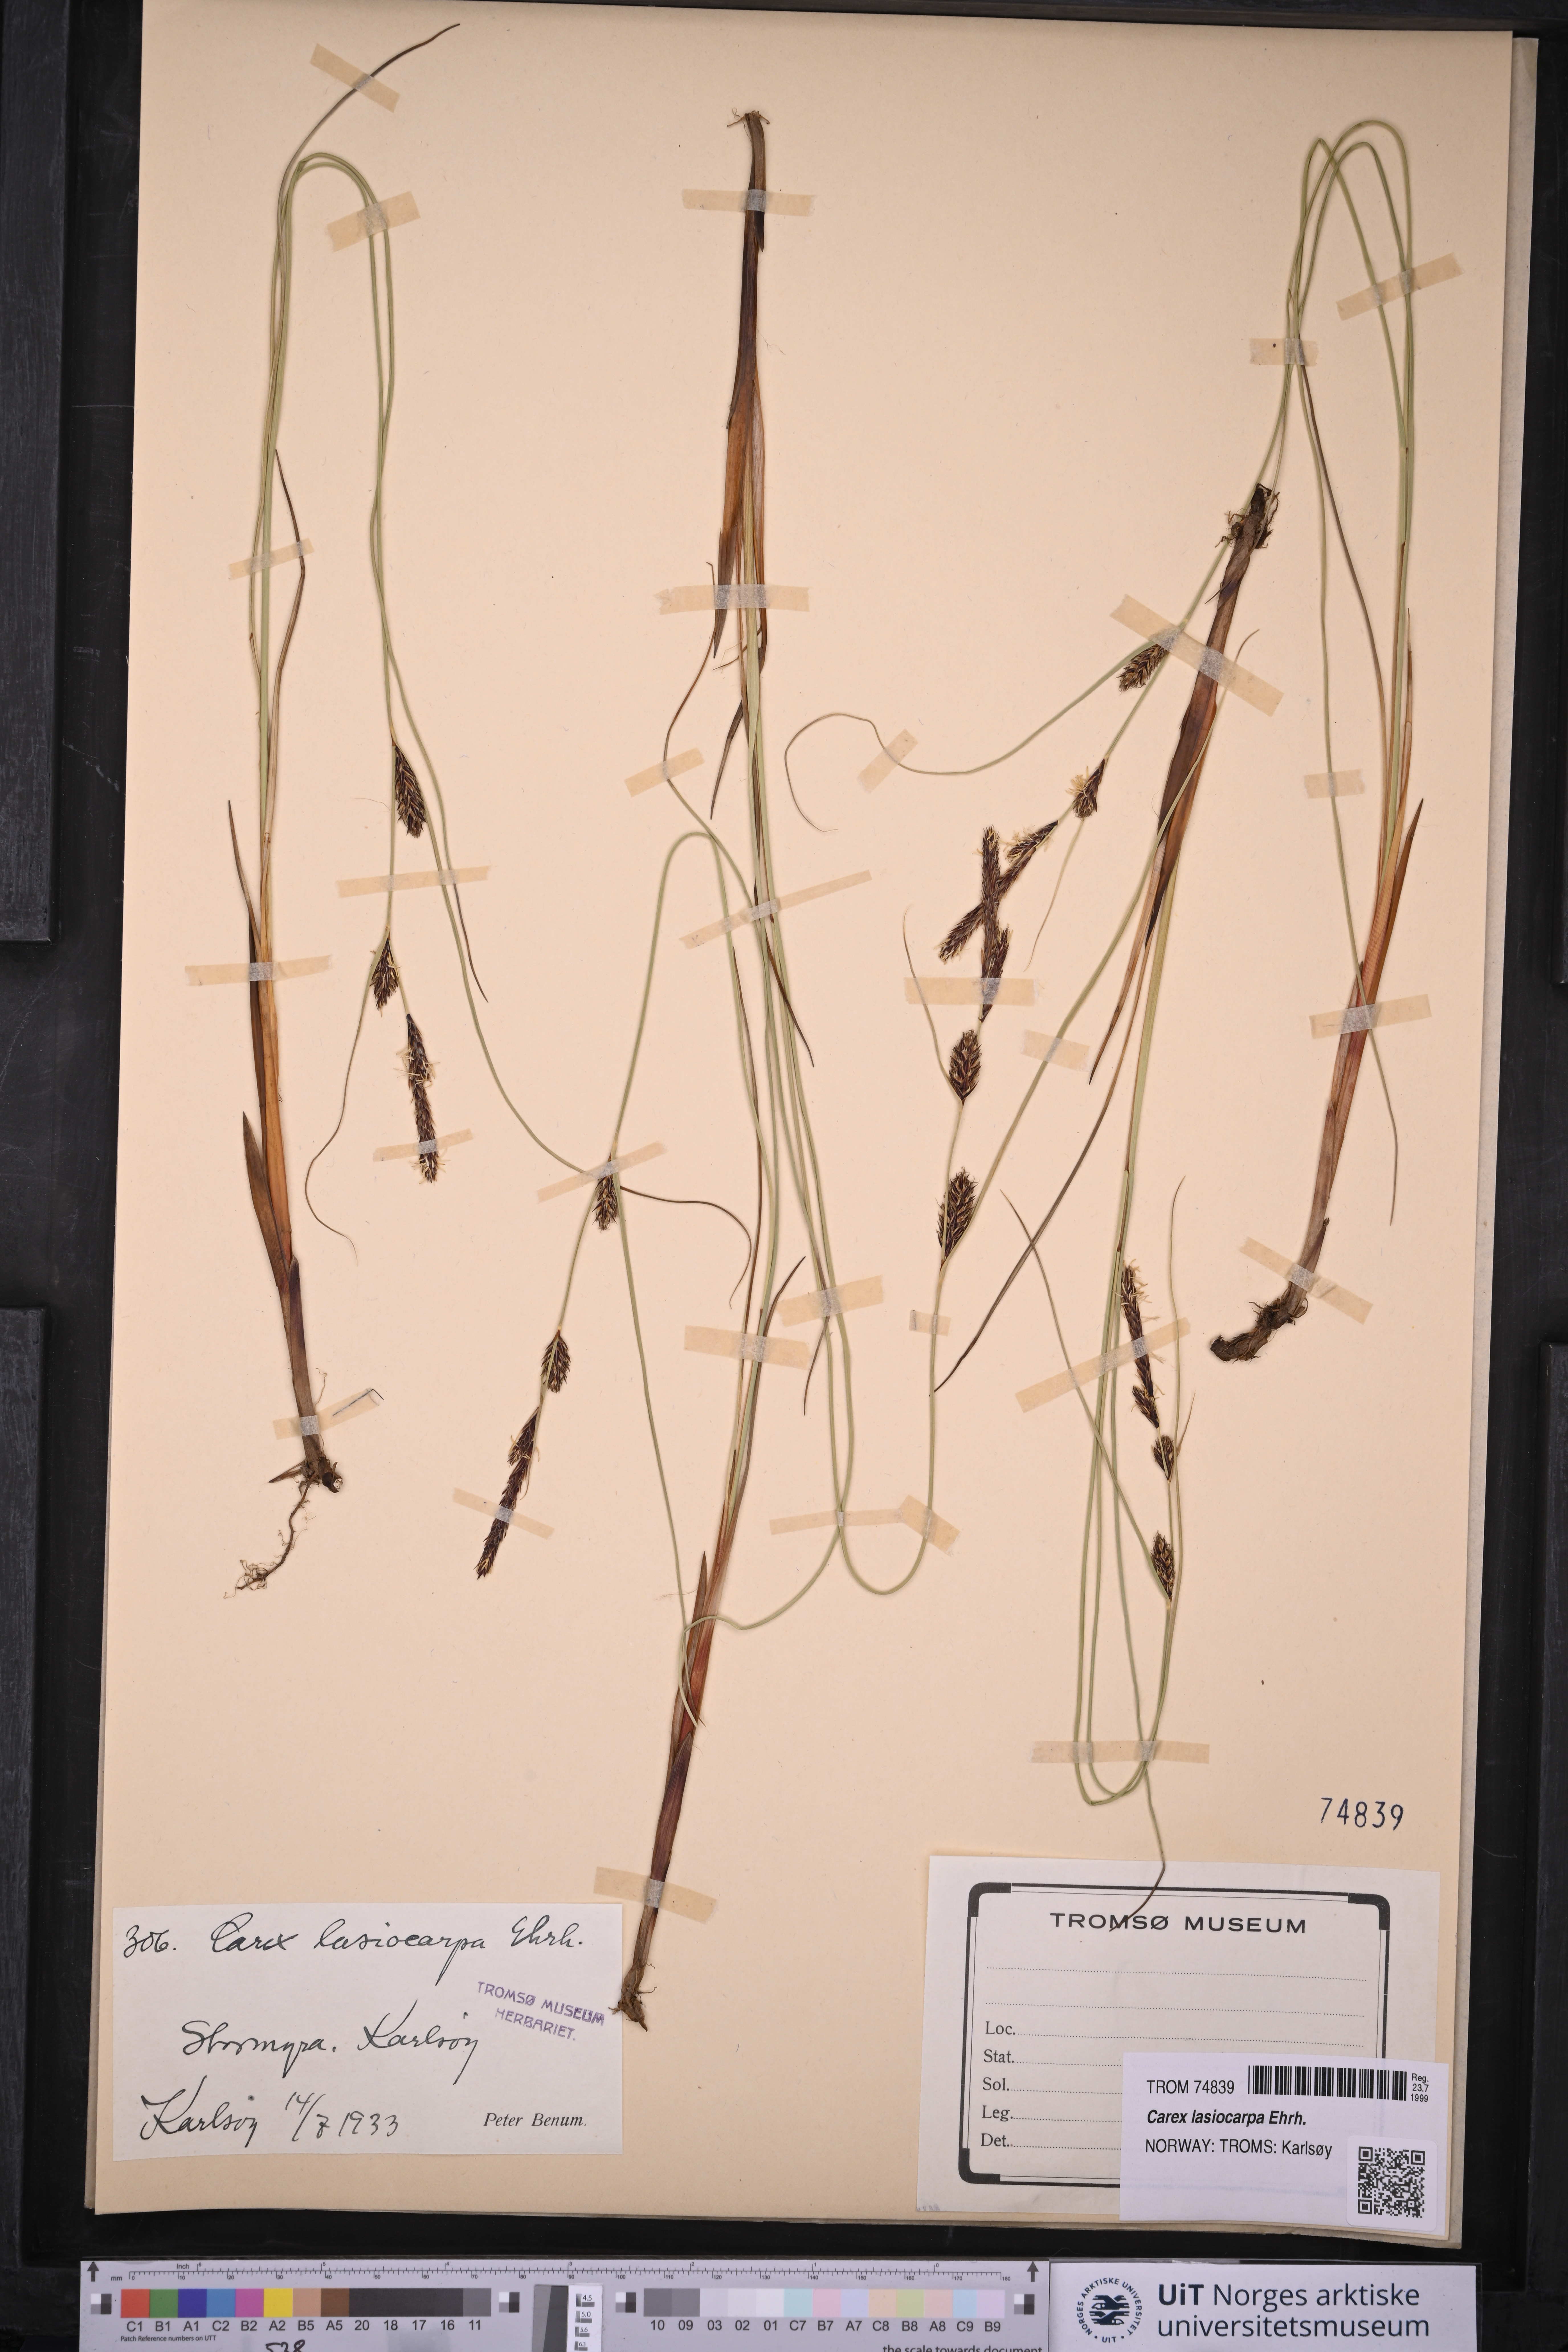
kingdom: Plantae
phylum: Tracheophyta
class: Liliopsida
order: Poales
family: Cyperaceae
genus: Carex
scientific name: Carex lasiocarpa
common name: Slender sedge
